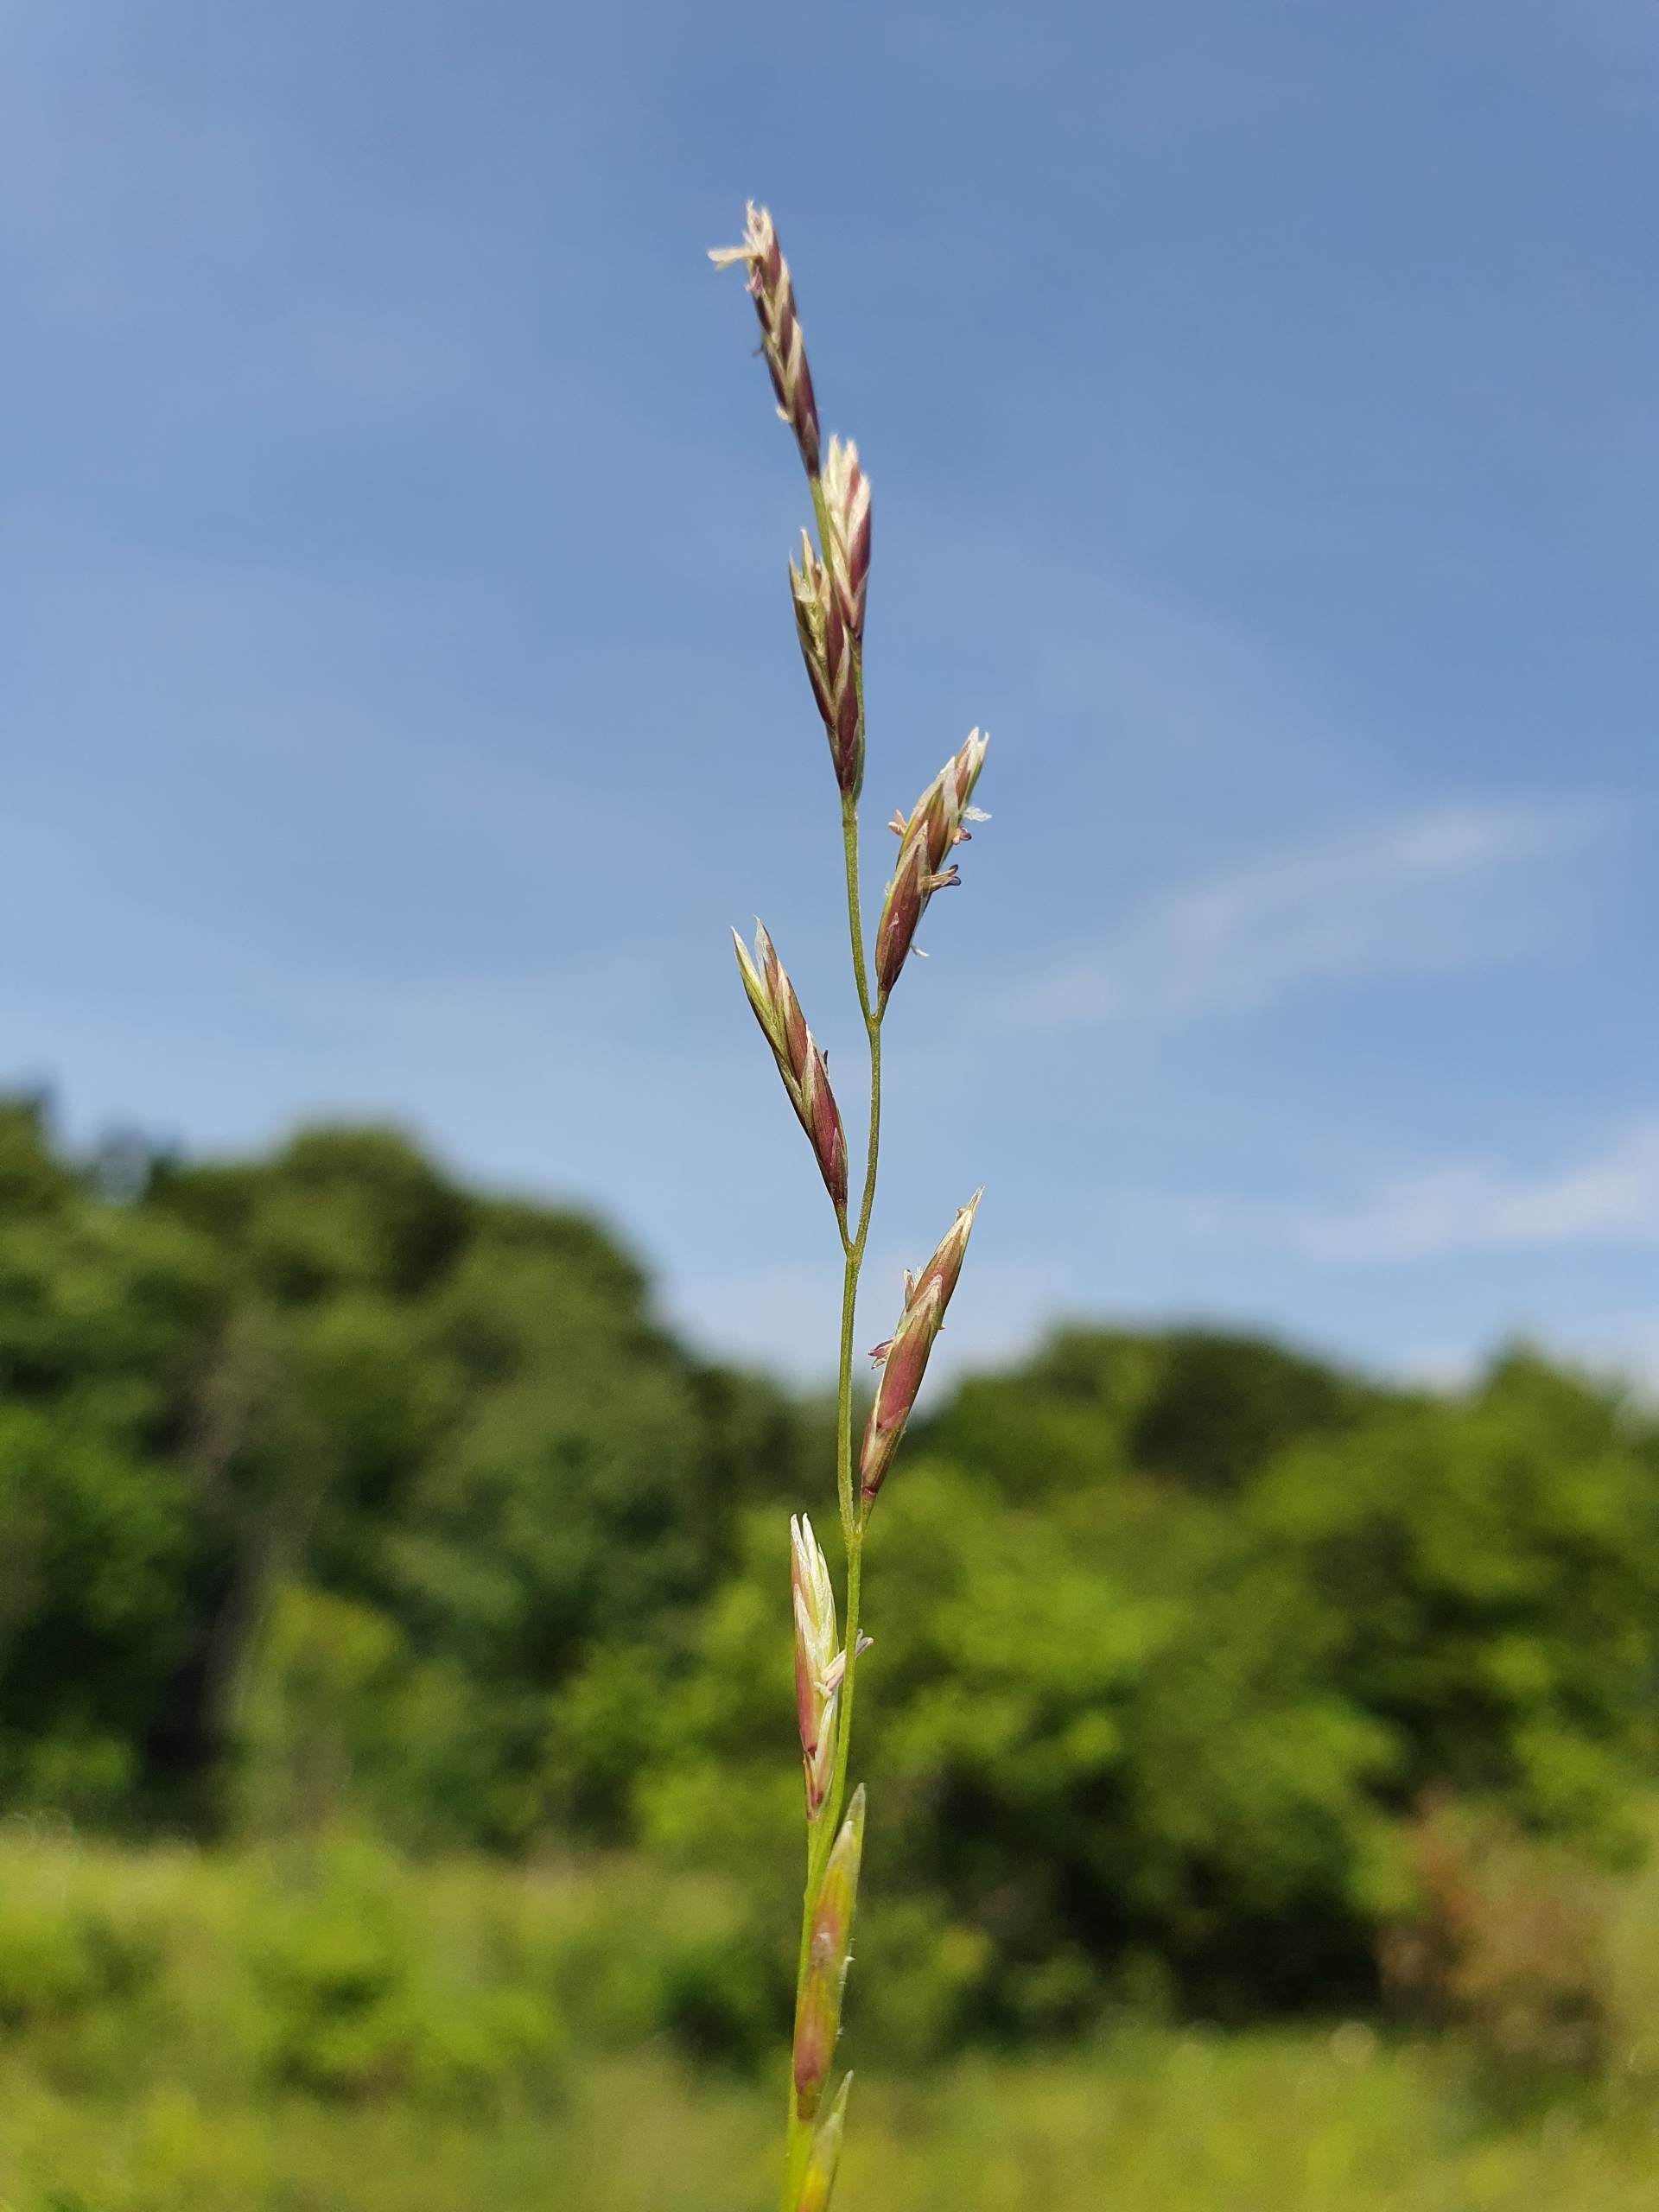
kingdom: Plantae
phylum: Tracheophyta
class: Liliopsida
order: Poales
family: Poaceae
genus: Lolium
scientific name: Lolium pratense
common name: Eng-svingel
